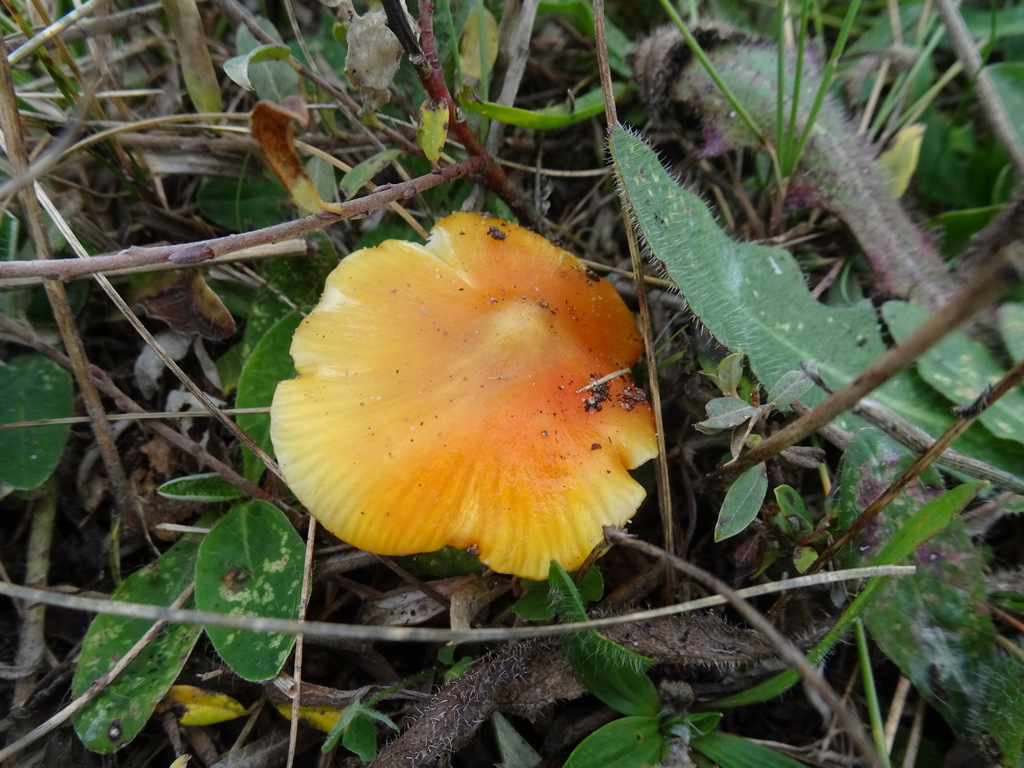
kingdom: Fungi
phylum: Basidiomycota
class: Agaricomycetes
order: Agaricales
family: Hygrophoraceae
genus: Hygrocybe
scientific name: Hygrocybe acutoconica
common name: spidspuklet vokshat
